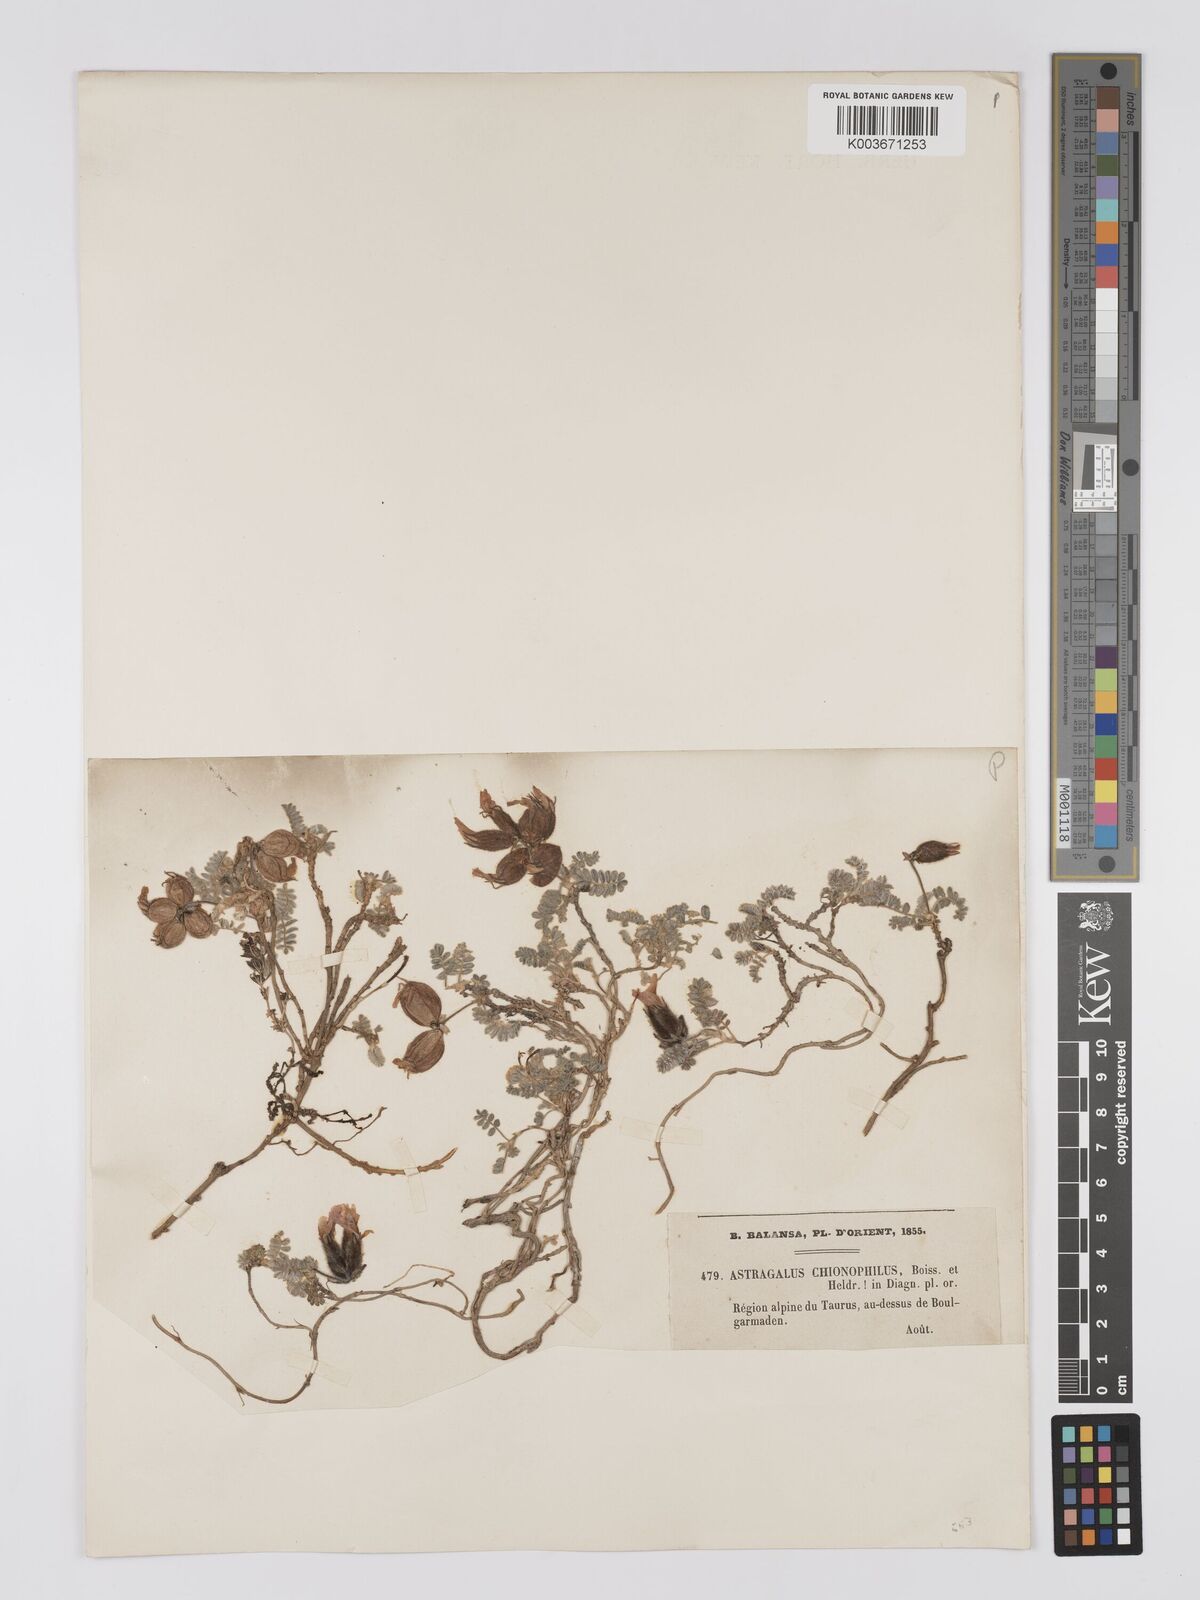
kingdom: Plantae
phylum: Tracheophyta
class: Magnoliopsida
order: Fabales
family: Fabaceae
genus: Astragalus
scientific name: Astragalus lineatus
